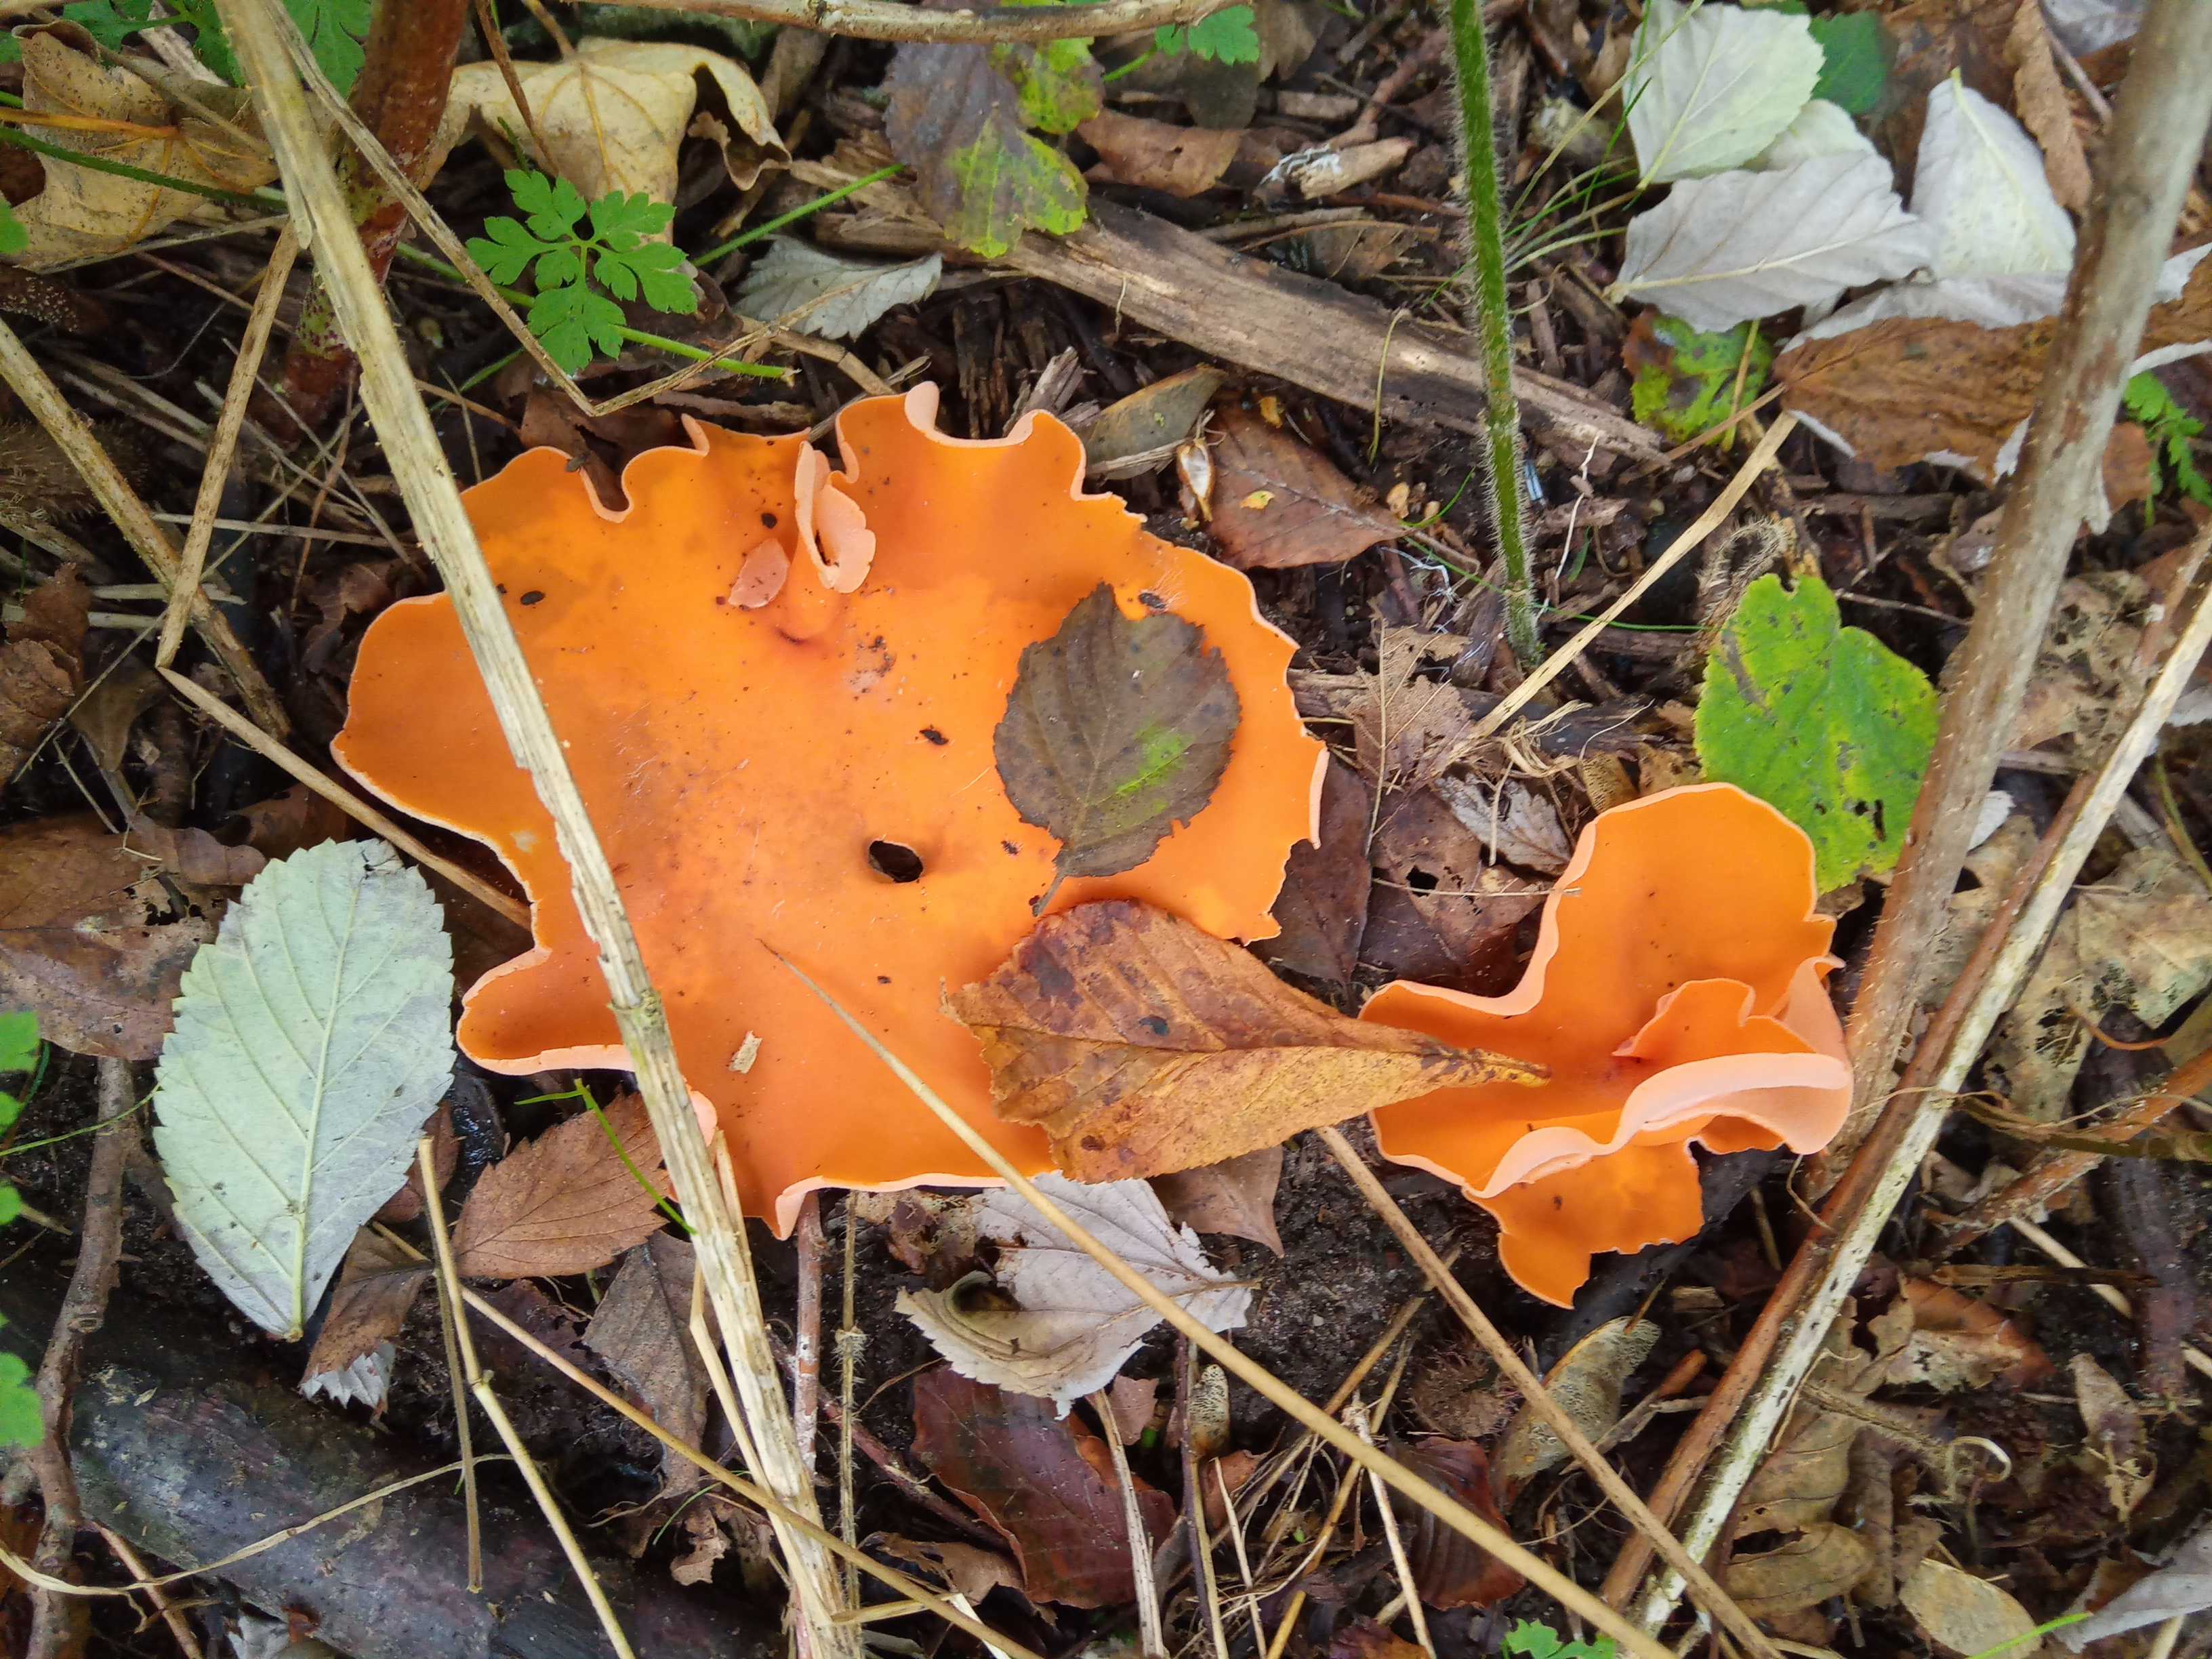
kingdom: Fungi
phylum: Ascomycota
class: Pezizomycetes
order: Pezizales
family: Pyronemataceae
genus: Aleuria
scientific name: Aleuria aurantia
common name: almindelig orangebæger
